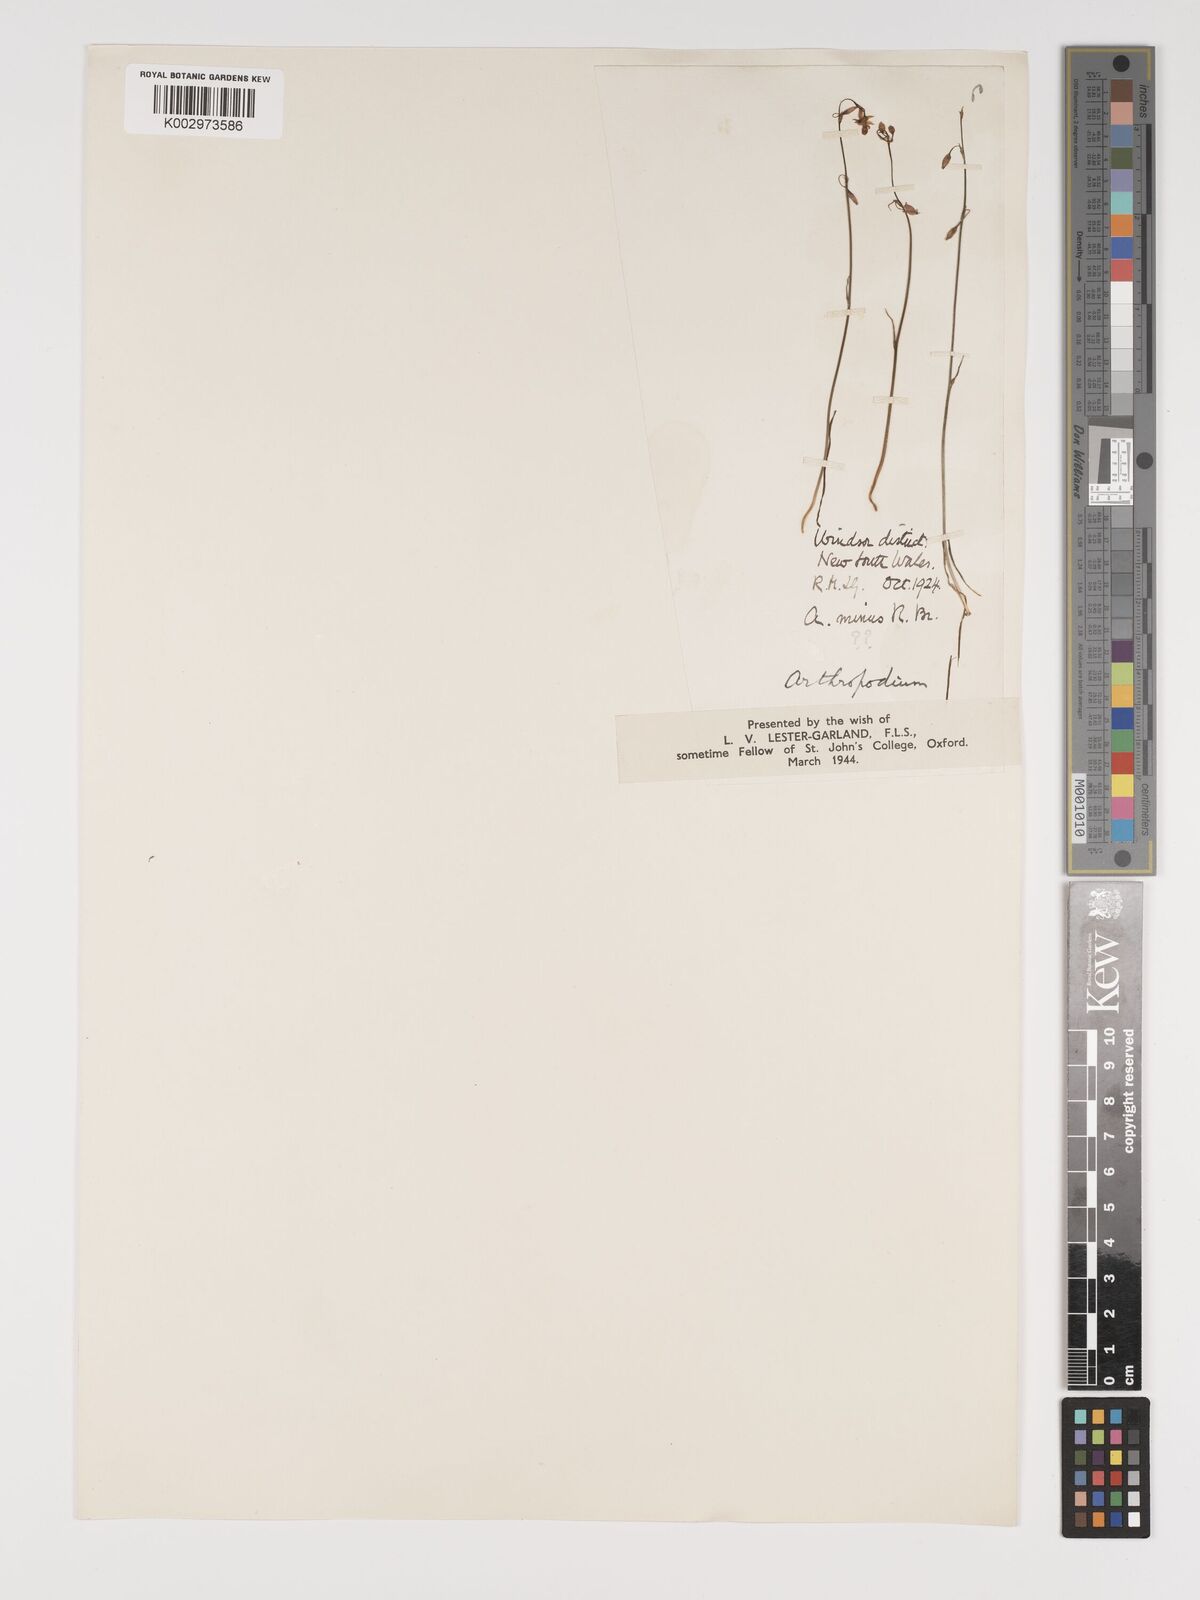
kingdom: Plantae
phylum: Tracheophyta
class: Liliopsida
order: Asparagales
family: Asparagaceae
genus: Arthropodium
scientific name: Arthropodium minus
